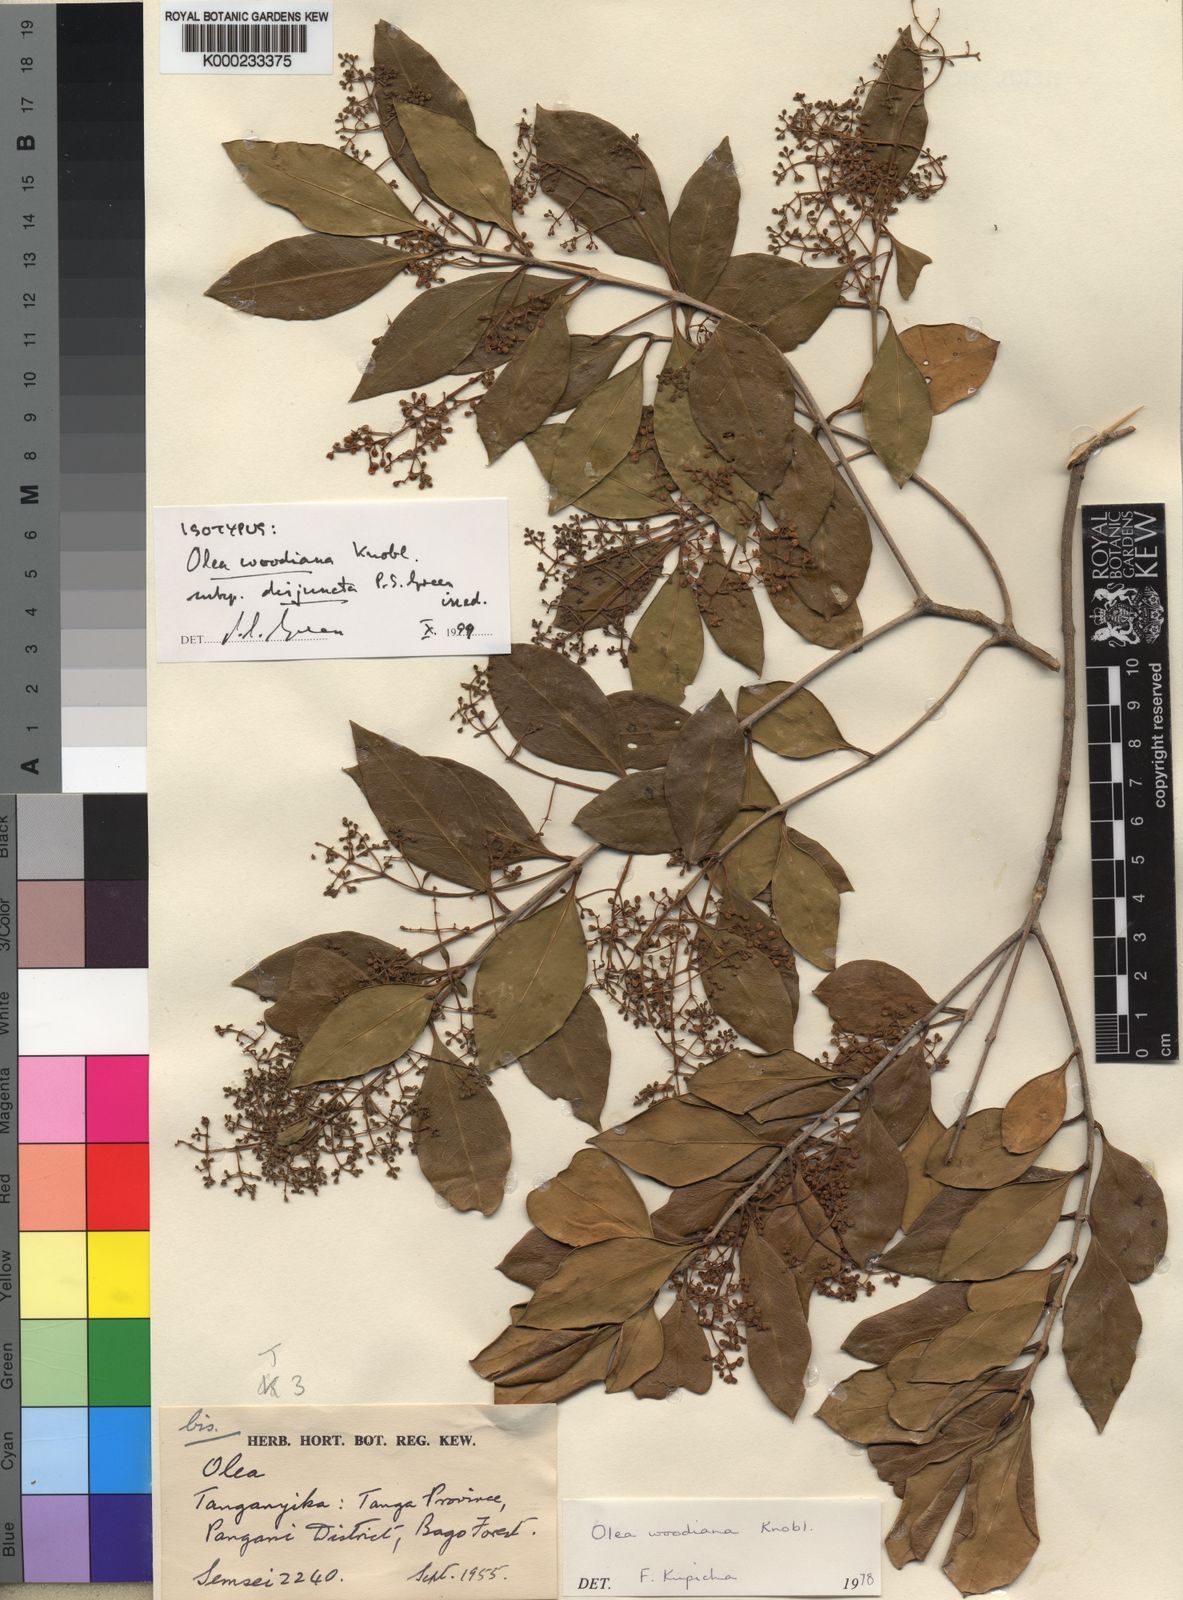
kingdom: Plantae
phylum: Tracheophyta
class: Magnoliopsida
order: Lamiales
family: Oleaceae
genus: Olea
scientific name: Olea woodiana
